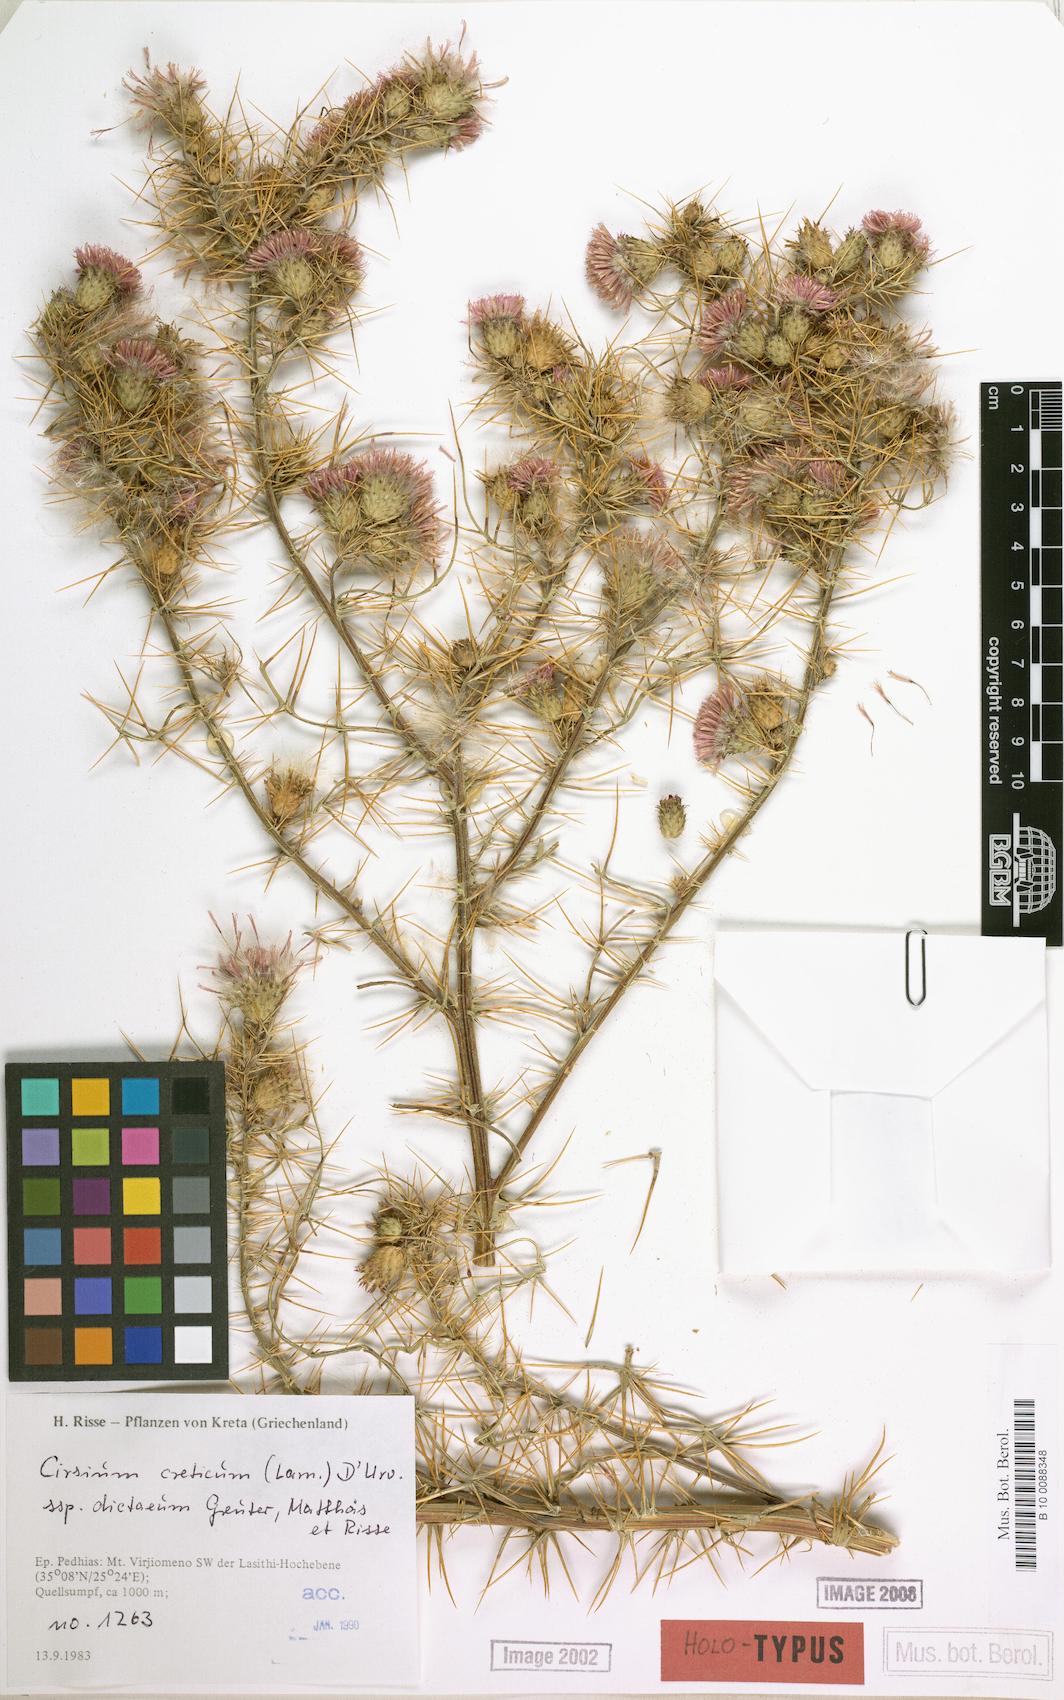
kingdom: Plantae
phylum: Tracheophyta
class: Magnoliopsida
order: Asterales
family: Asteraceae
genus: Cirsium
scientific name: Cirsium creticum
